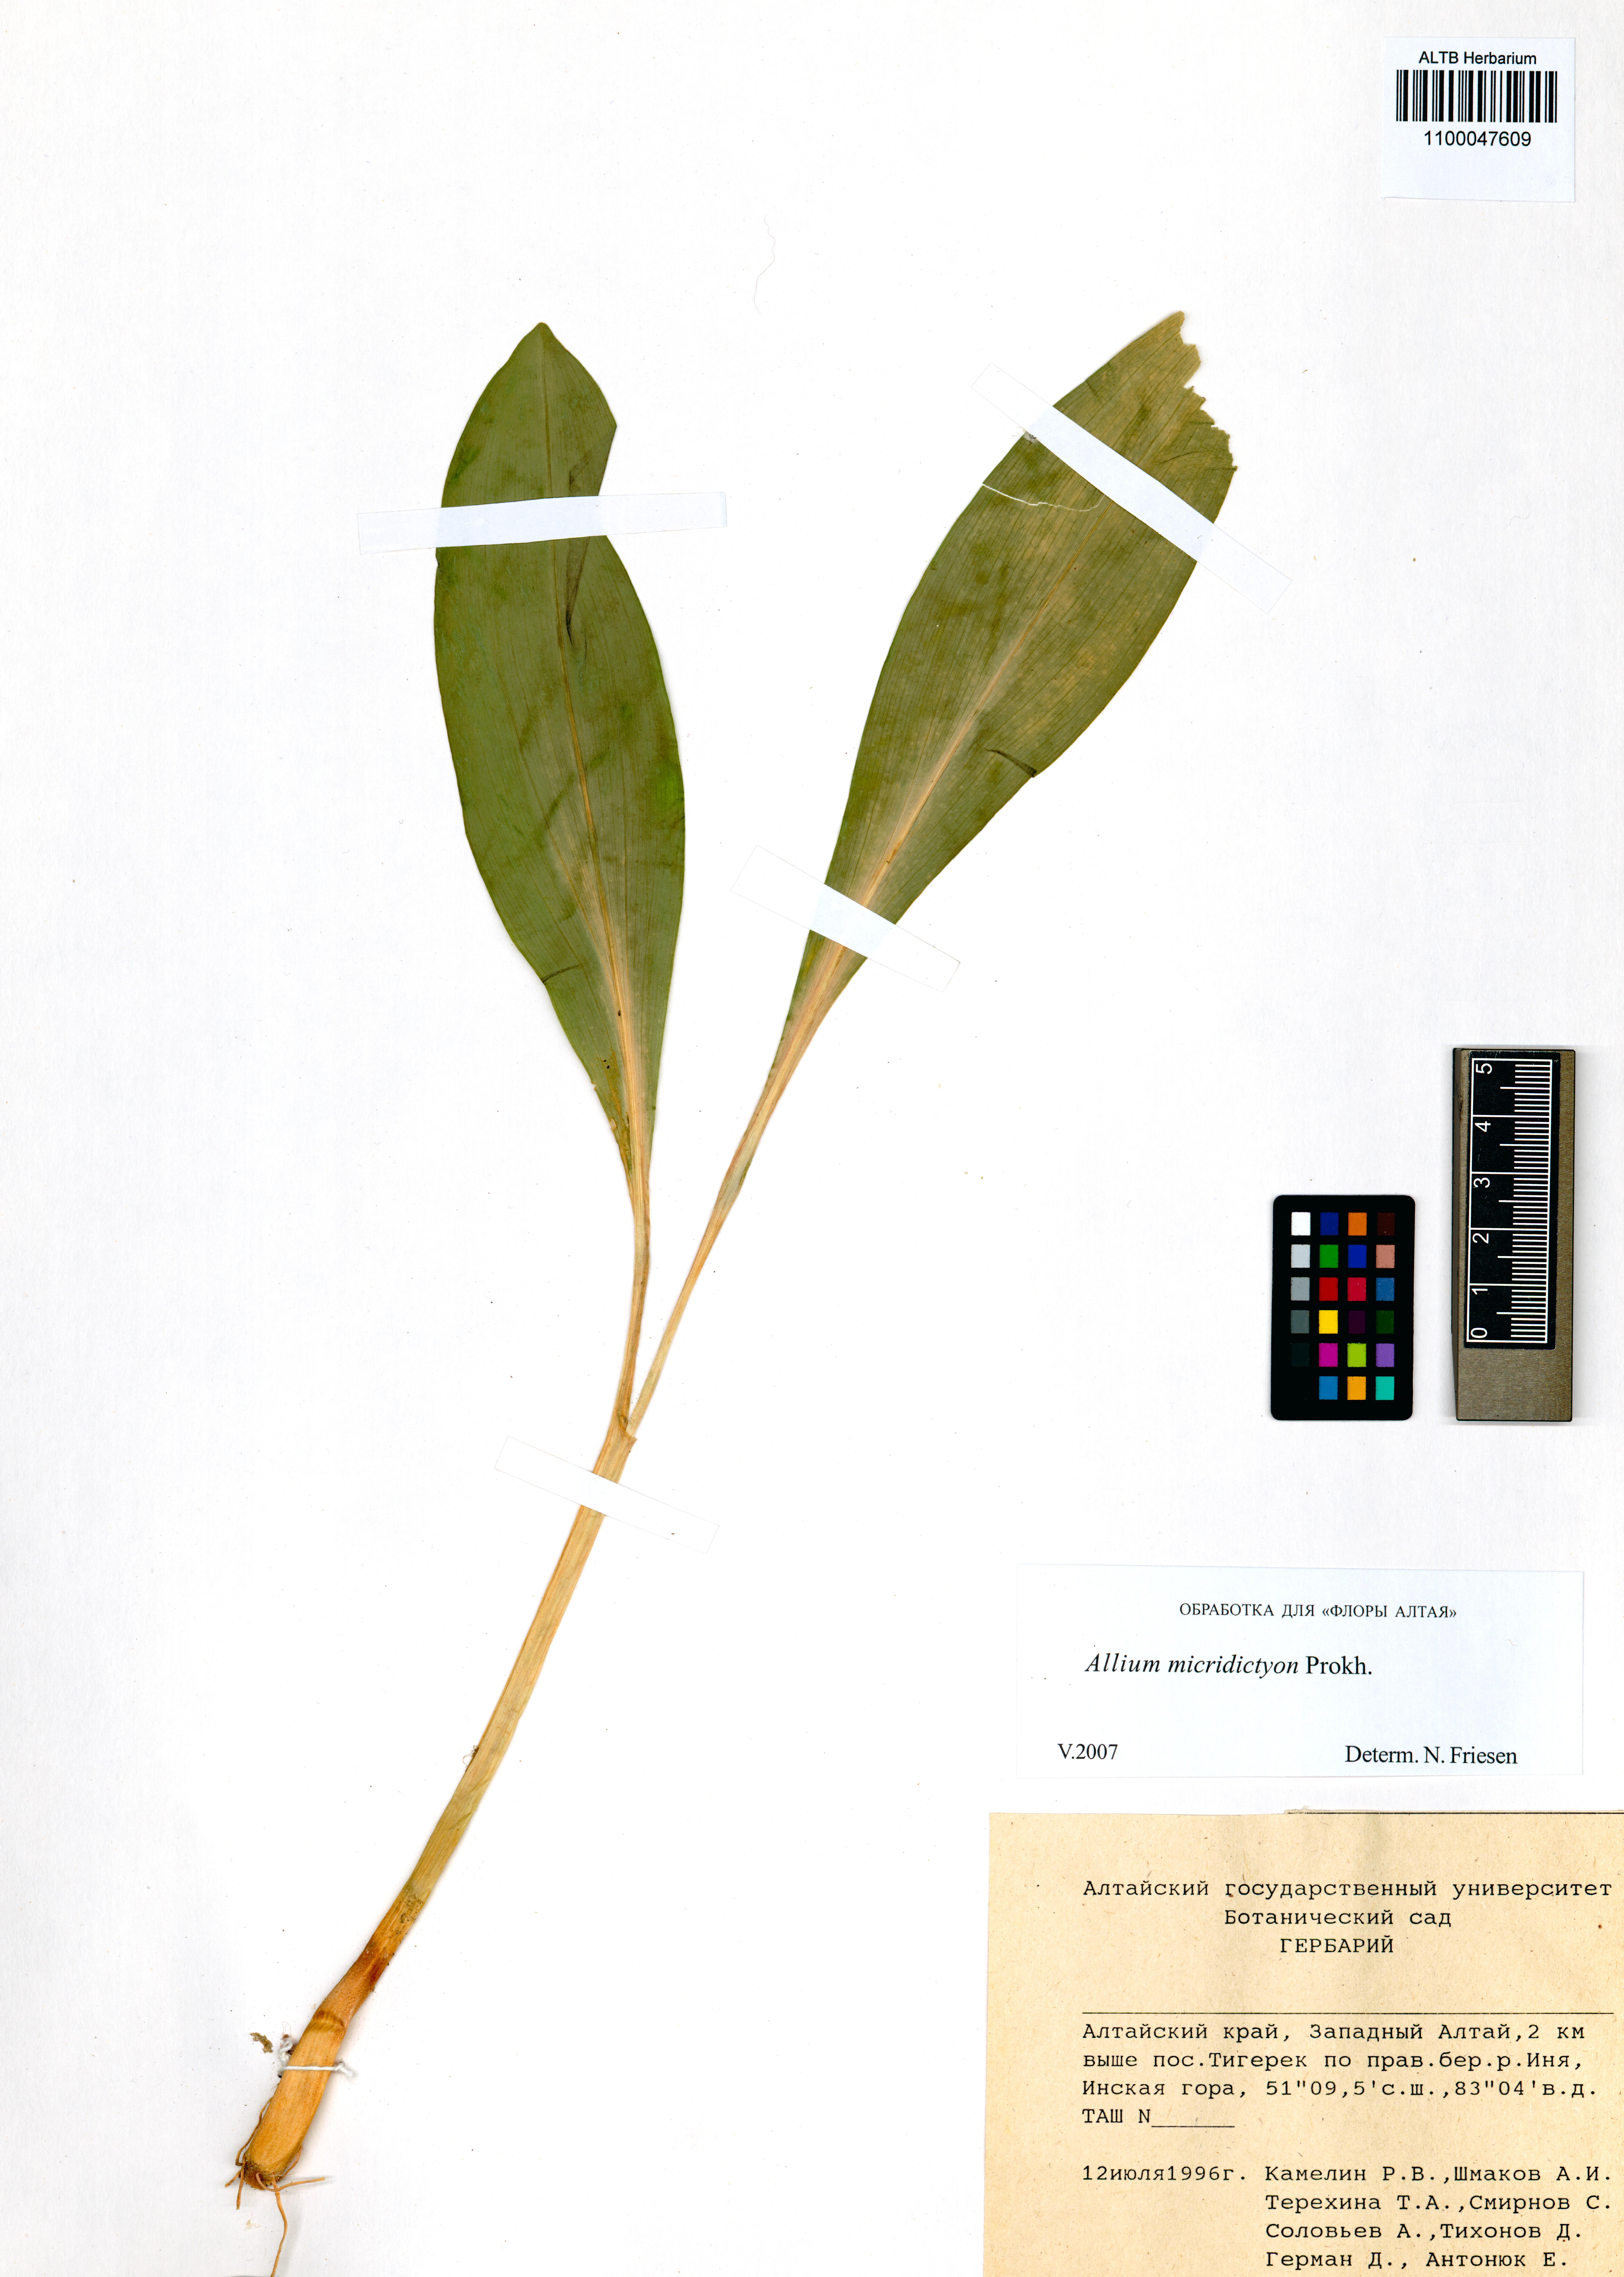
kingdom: Plantae
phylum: Tracheophyta
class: Liliopsida
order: Asparagales
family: Amaryllidaceae
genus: Allium
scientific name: Allium microdictyon
